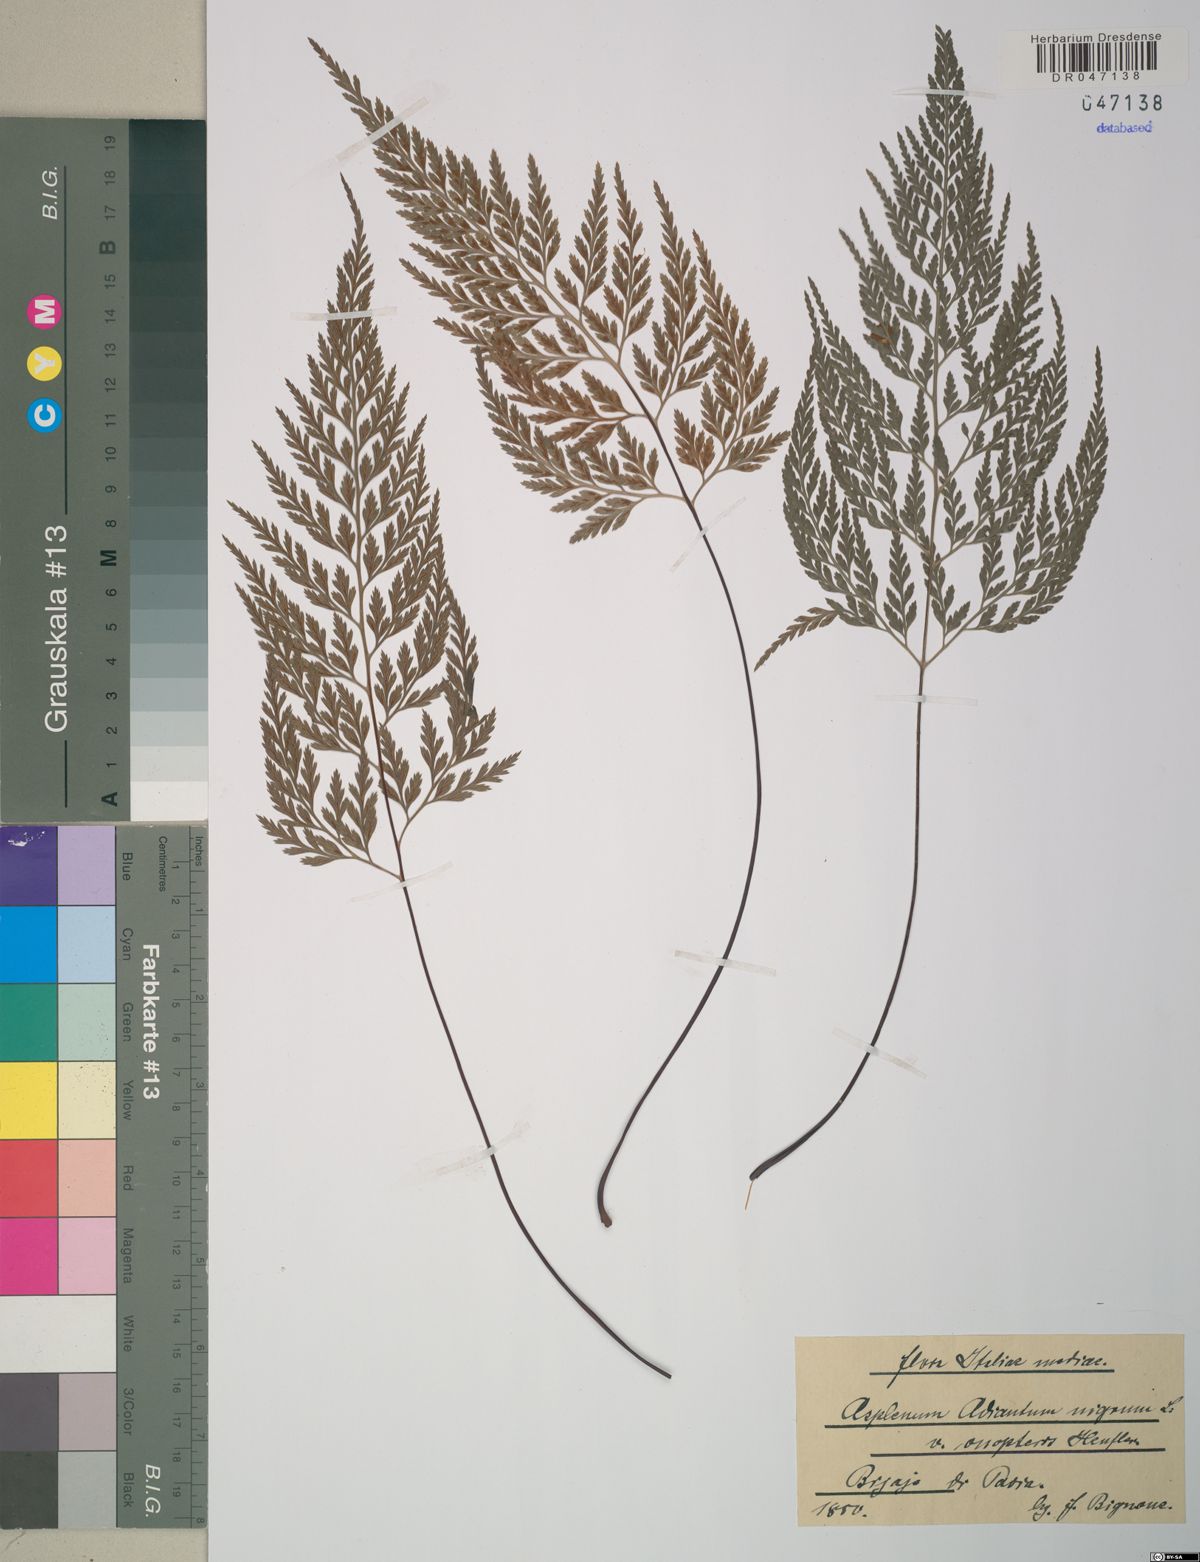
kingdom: Plantae
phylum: Tracheophyta
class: Polypodiopsida
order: Polypodiales
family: Aspleniaceae
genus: Asplenium
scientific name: Asplenium onopteris
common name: Irish spleenwort
